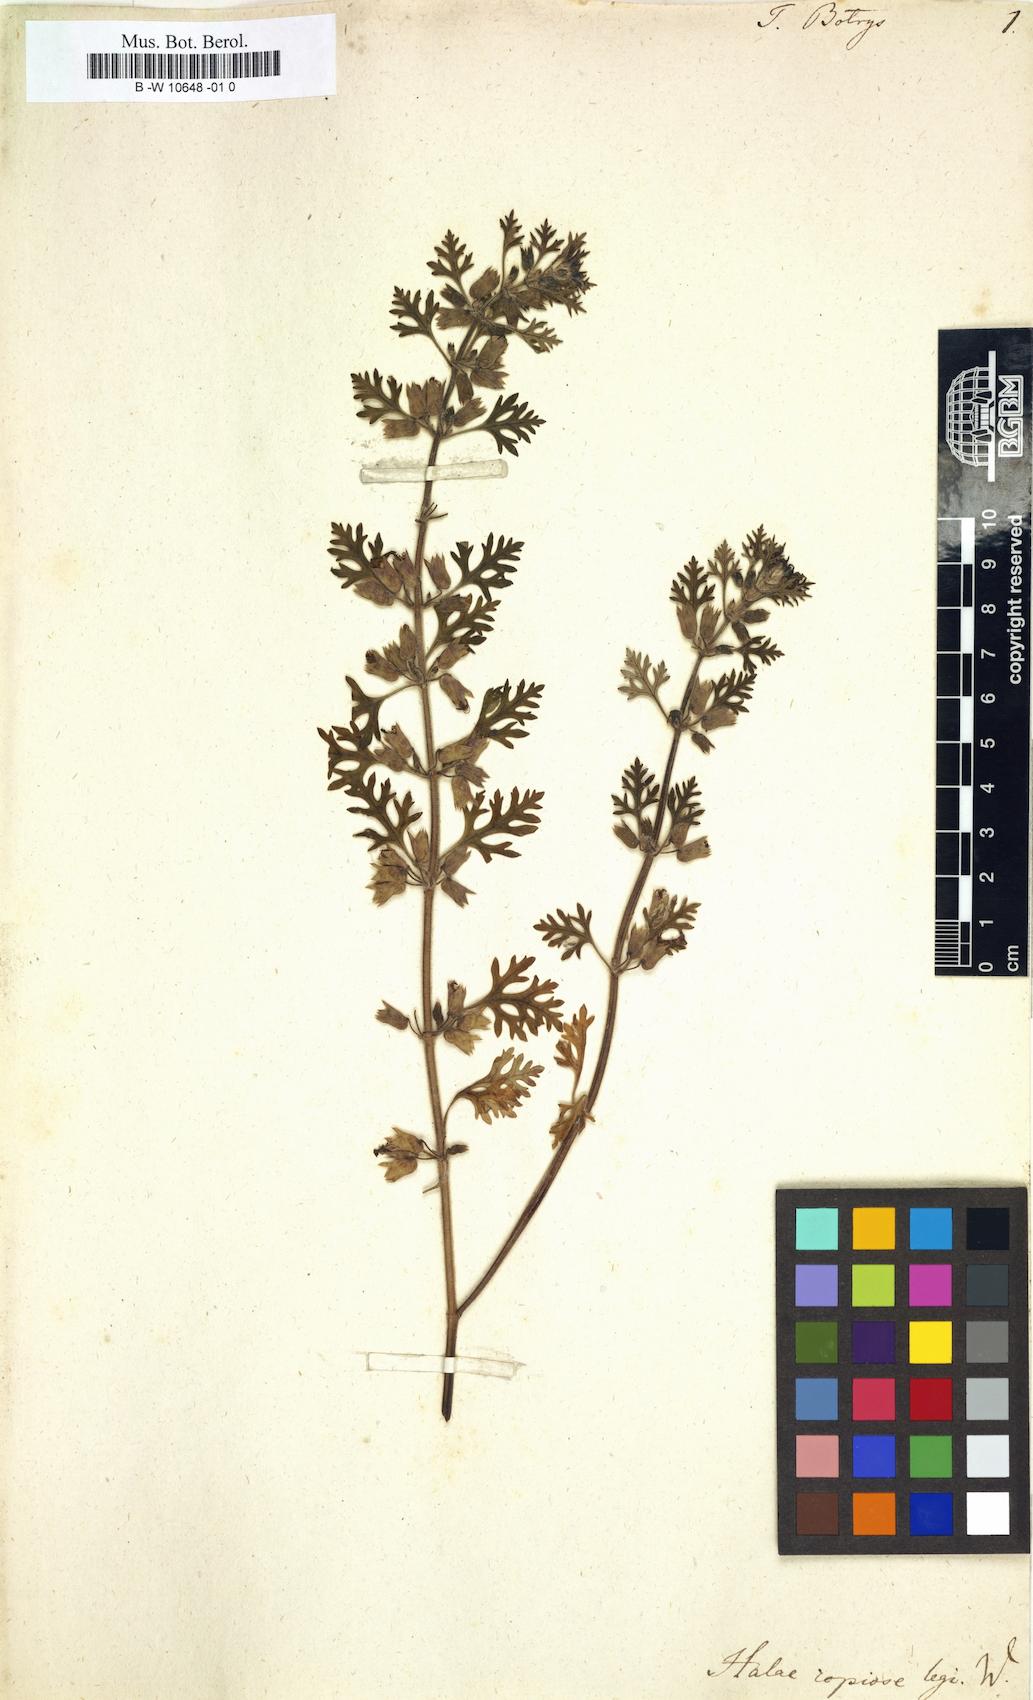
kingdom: Plantae
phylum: Tracheophyta
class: Magnoliopsida
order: Lamiales
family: Lamiaceae
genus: Teucrium
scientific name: Teucrium botrys
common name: Cut-leaved germander
